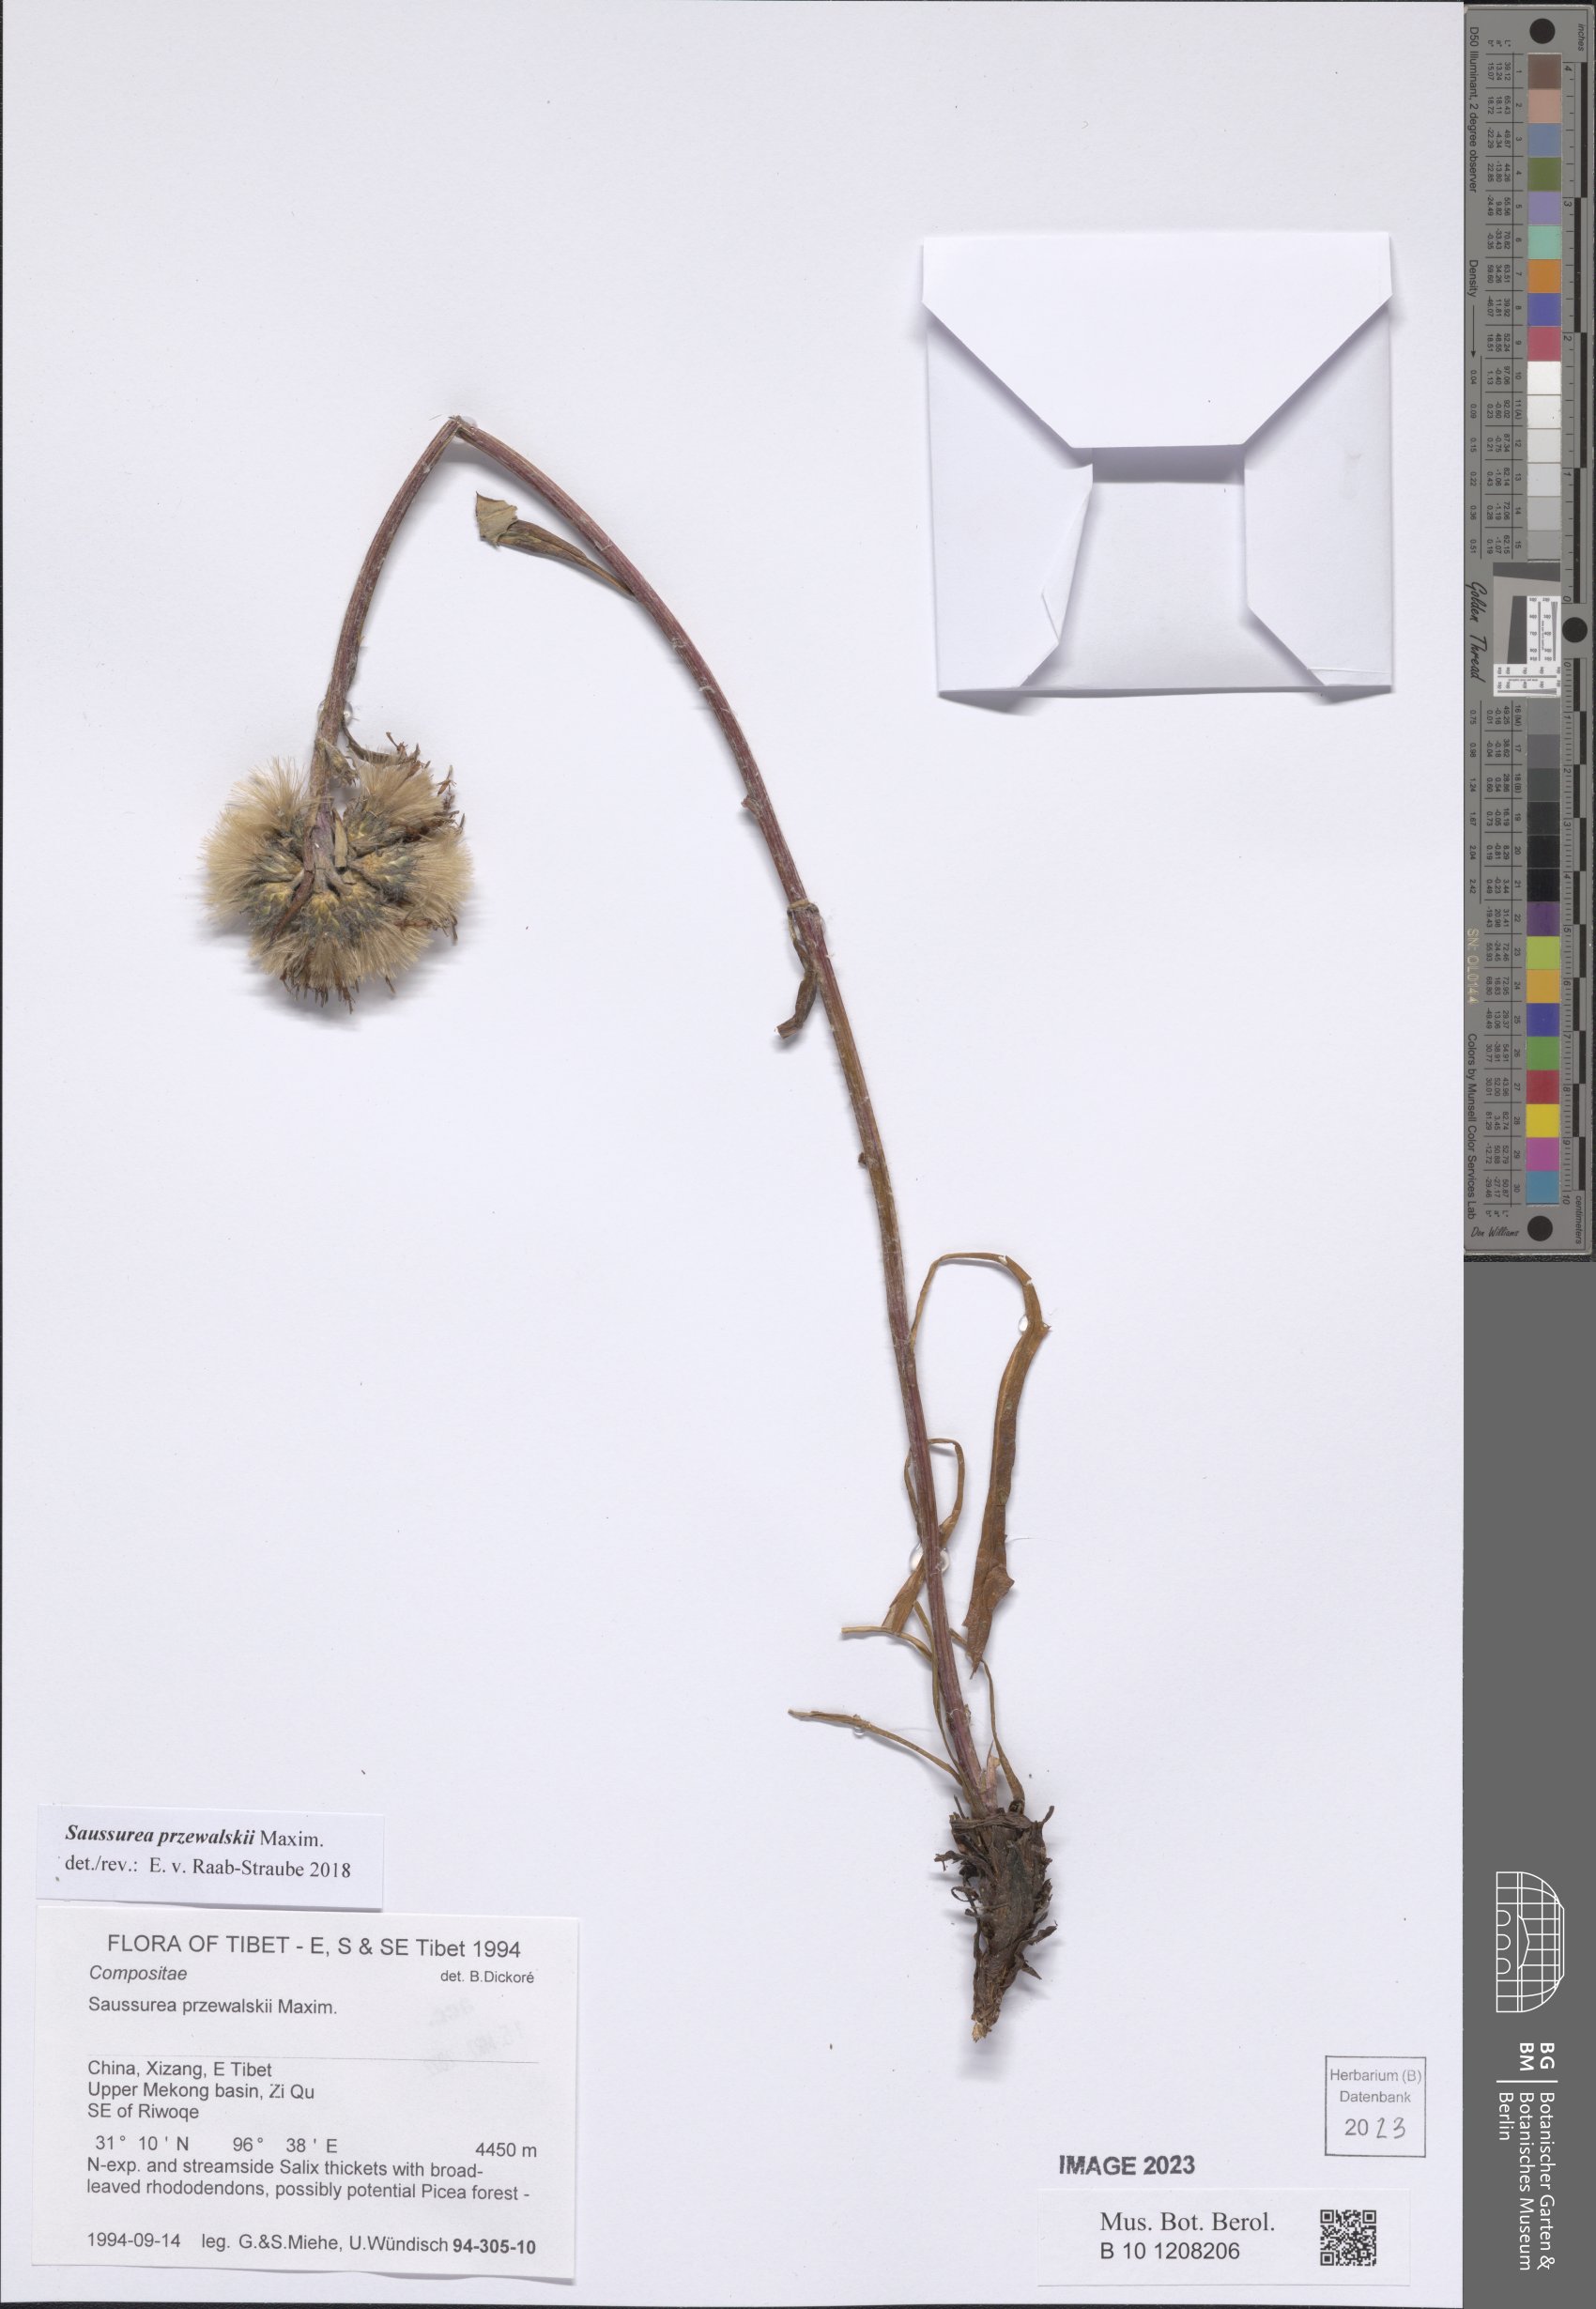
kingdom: Plantae
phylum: Tracheophyta
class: Magnoliopsida
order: Asterales
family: Asteraceae
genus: Saussurea
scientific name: Saussurea przewalskii
